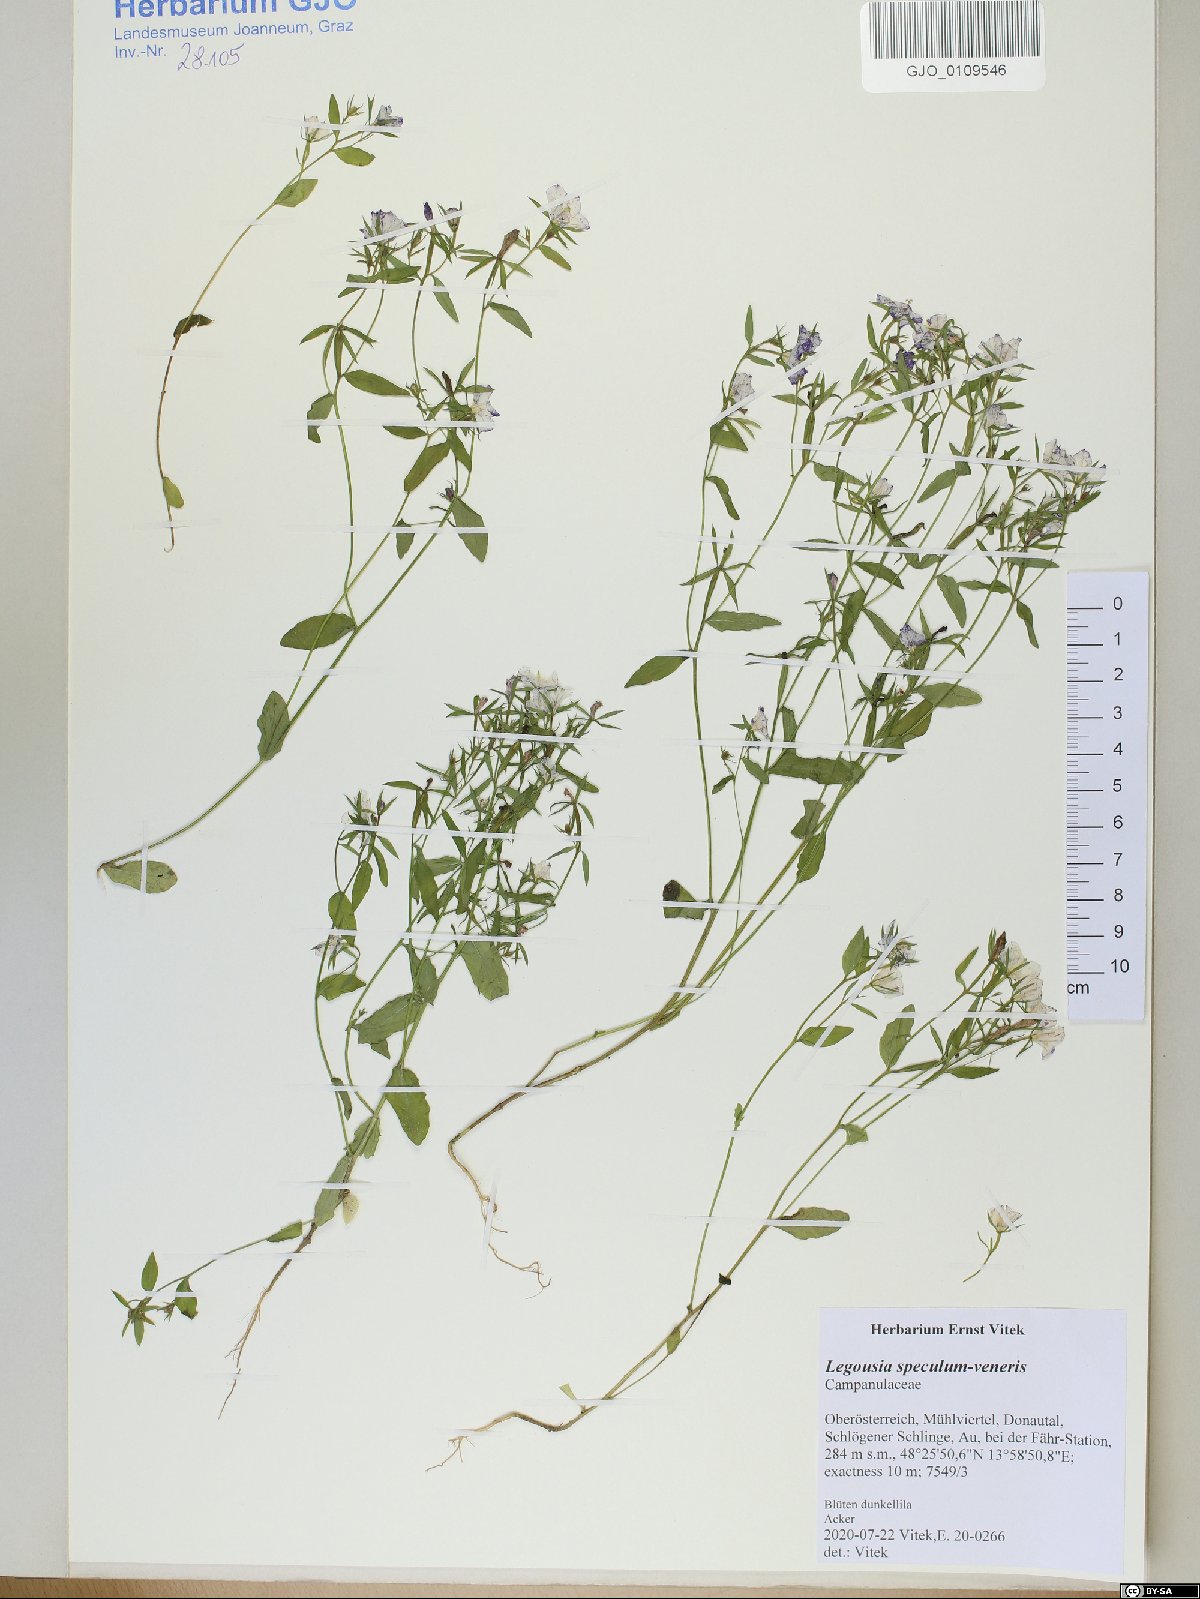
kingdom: Plantae
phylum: Tracheophyta
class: Magnoliopsida
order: Asterales
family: Campanulaceae
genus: Legousia
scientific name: Legousia speculum-veneris
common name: Large venus's-looking-glass
